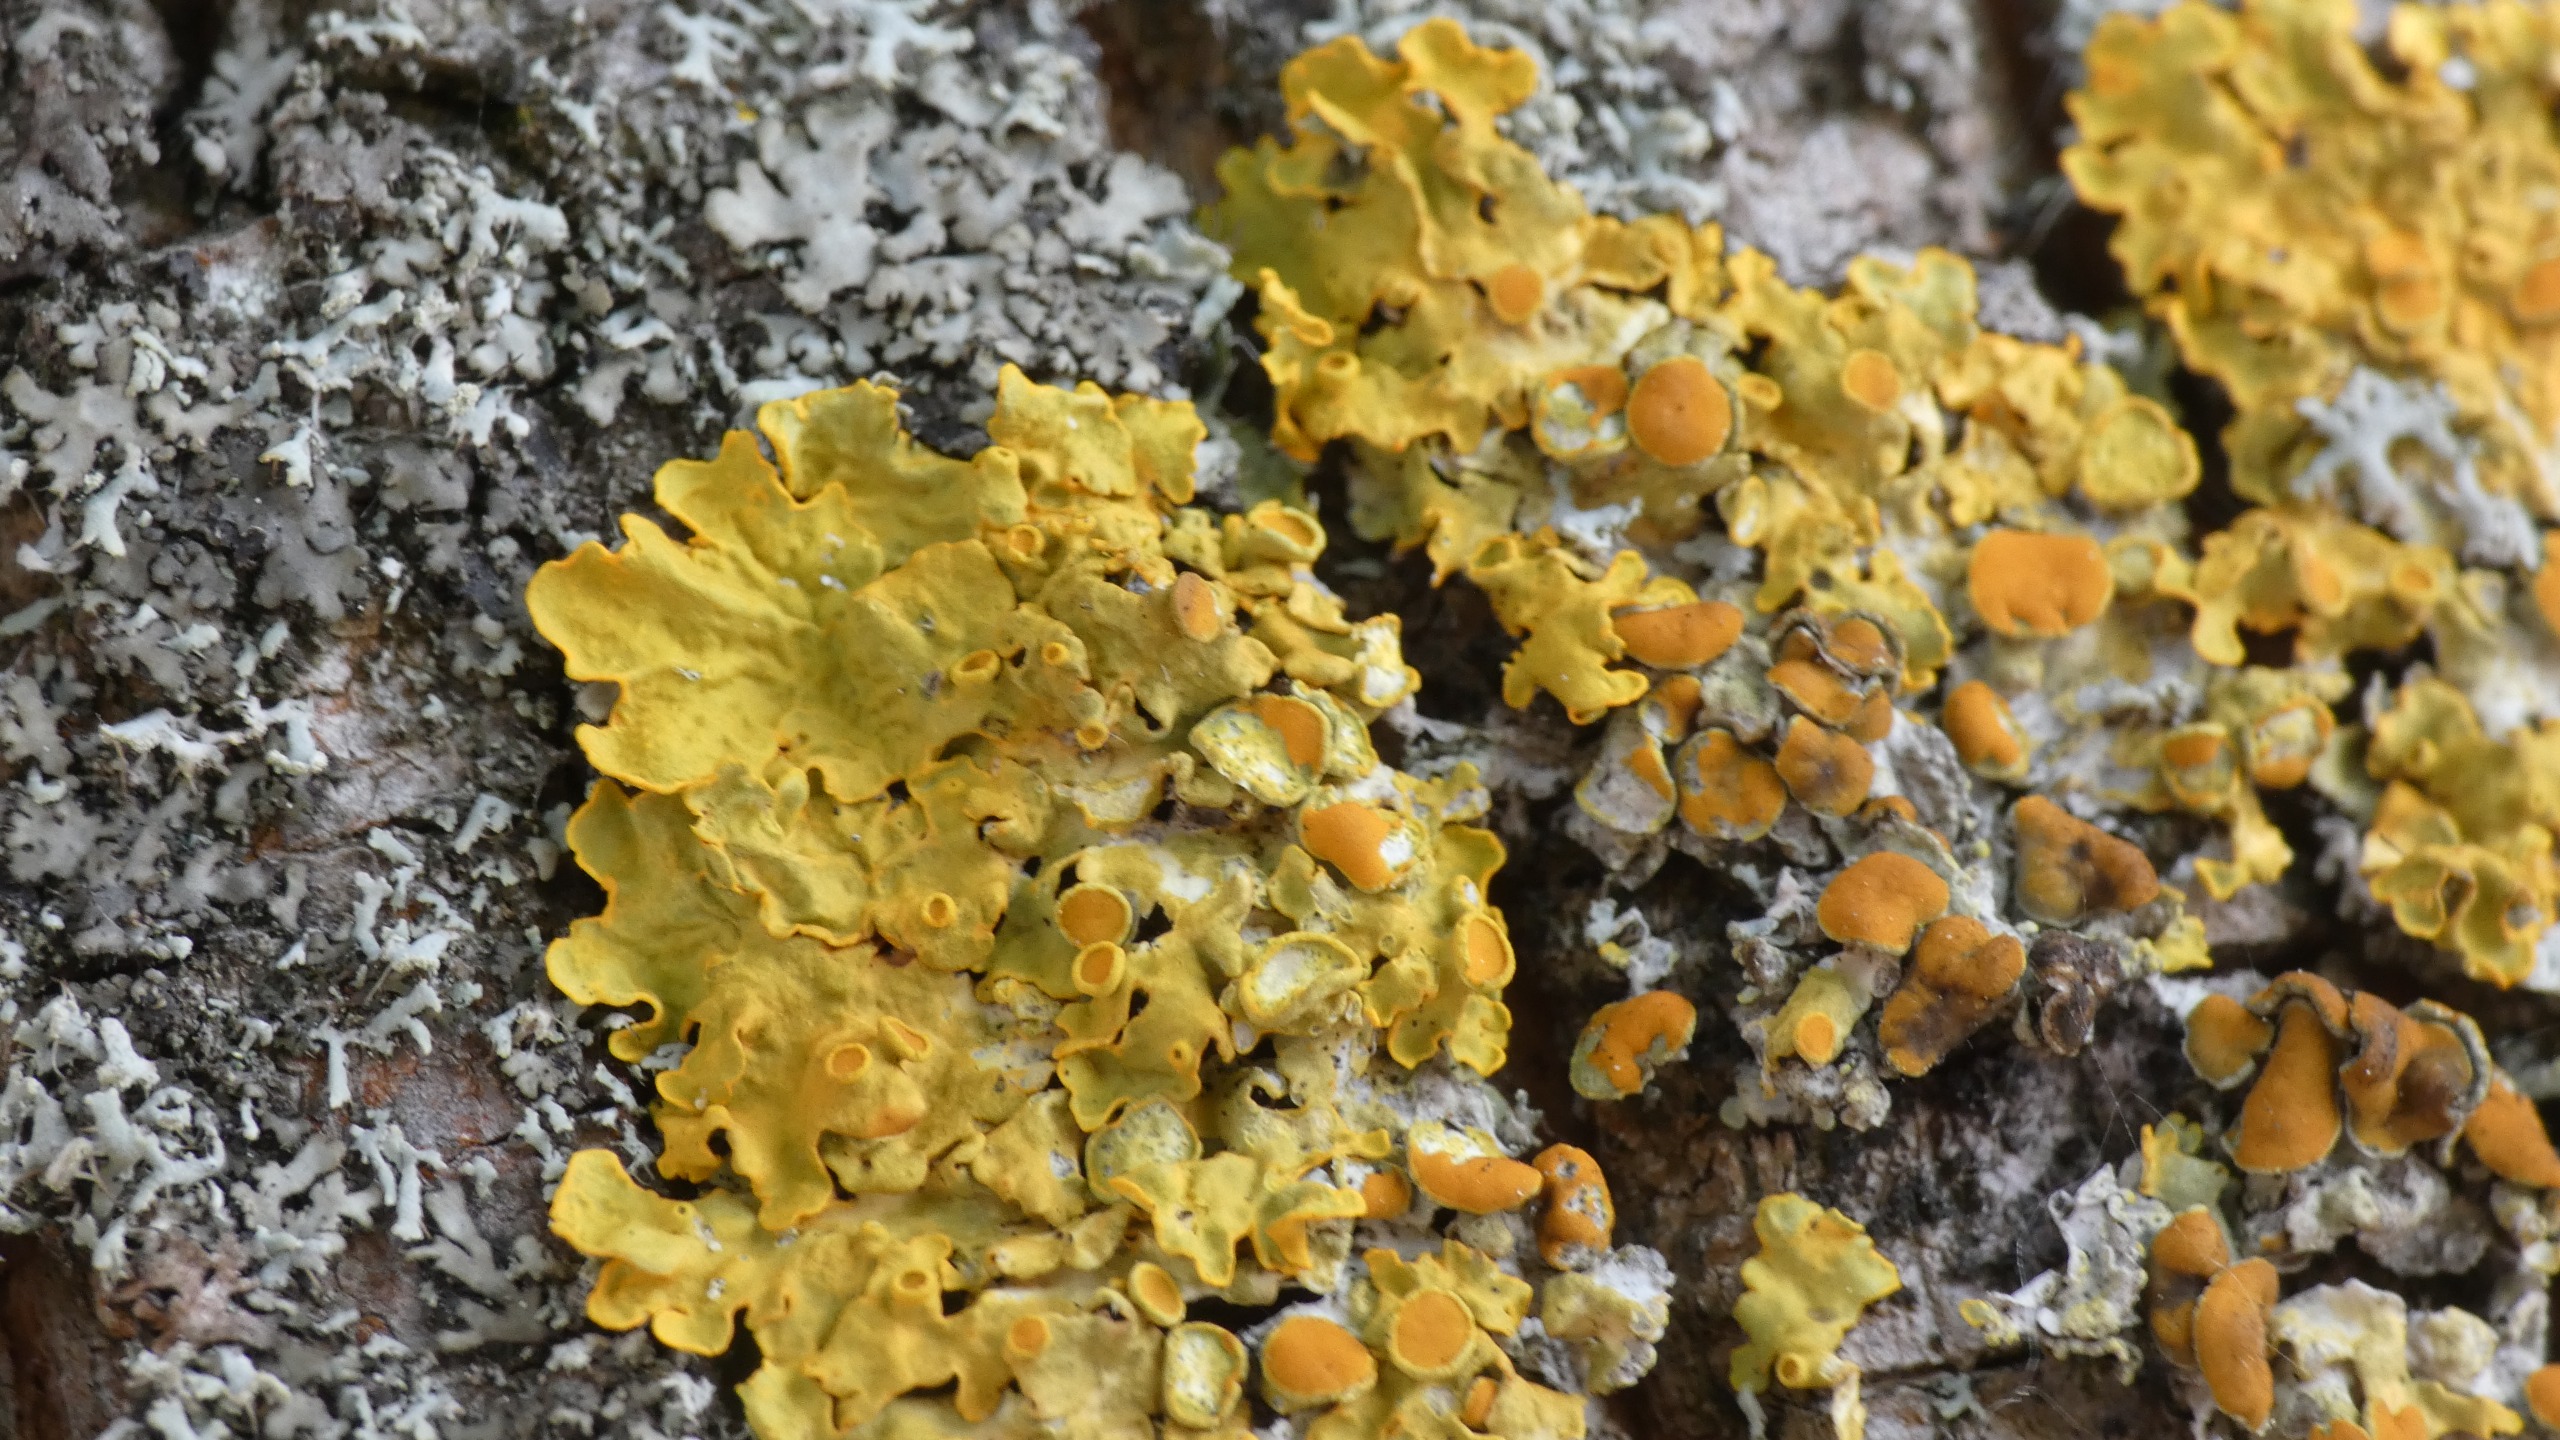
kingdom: Fungi
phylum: Ascomycota
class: Lecanoromycetes
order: Teloschistales
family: Teloschistaceae
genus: Xanthoria
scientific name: Xanthoria parietina
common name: Almindelig væggelav
